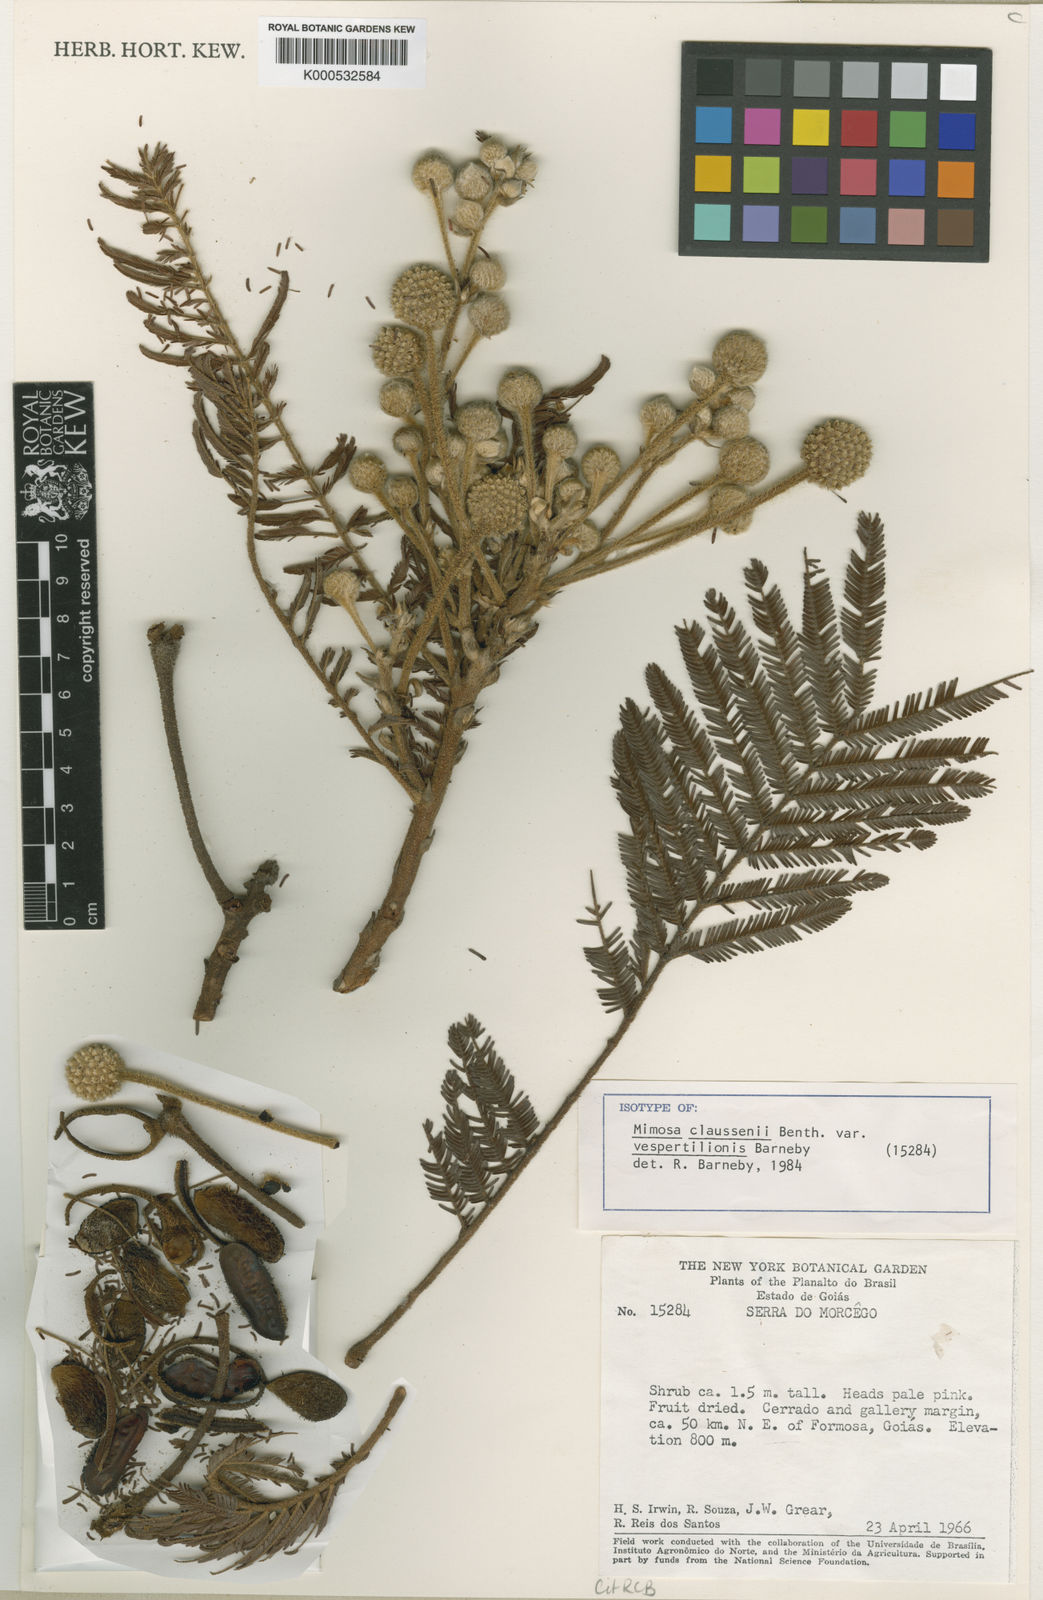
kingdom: Plantae
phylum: Tracheophyta
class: Magnoliopsida
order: Fabales
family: Fabaceae
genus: Mimosa
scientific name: Mimosa claussenii
